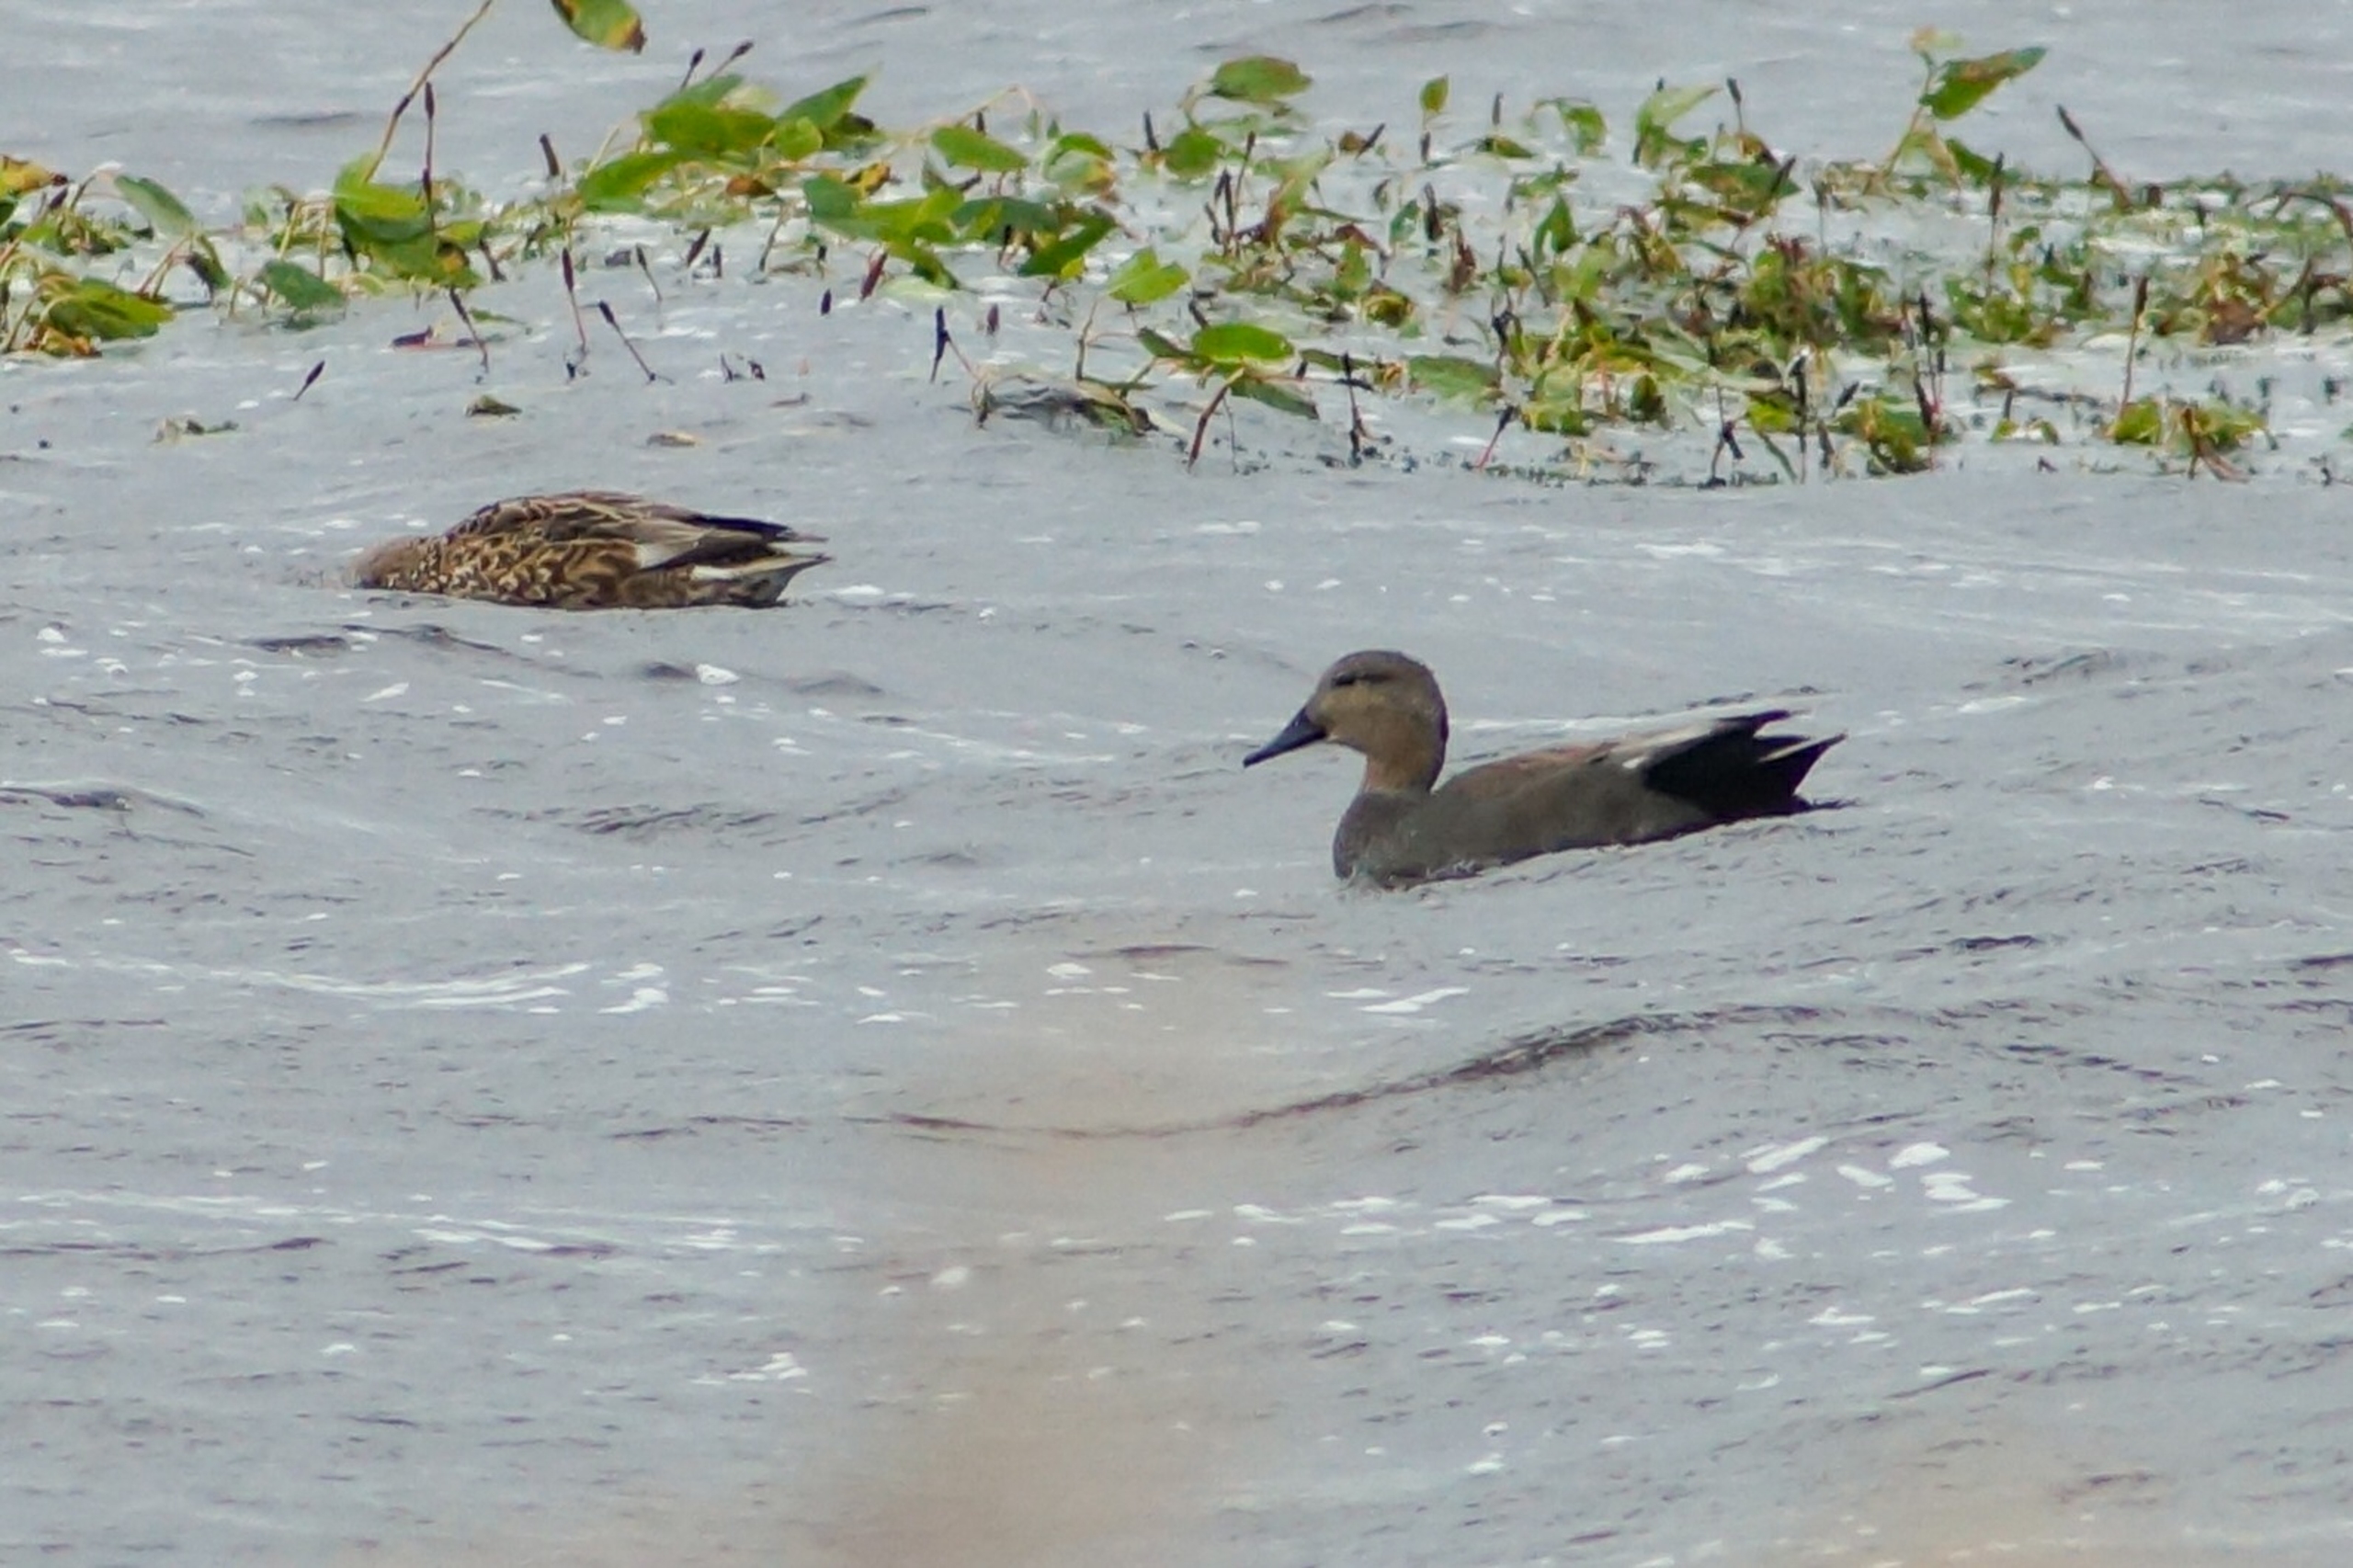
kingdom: Animalia
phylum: Chordata
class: Aves
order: Anseriformes
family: Anatidae
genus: Mareca
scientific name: Mareca strepera
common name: Knarand
